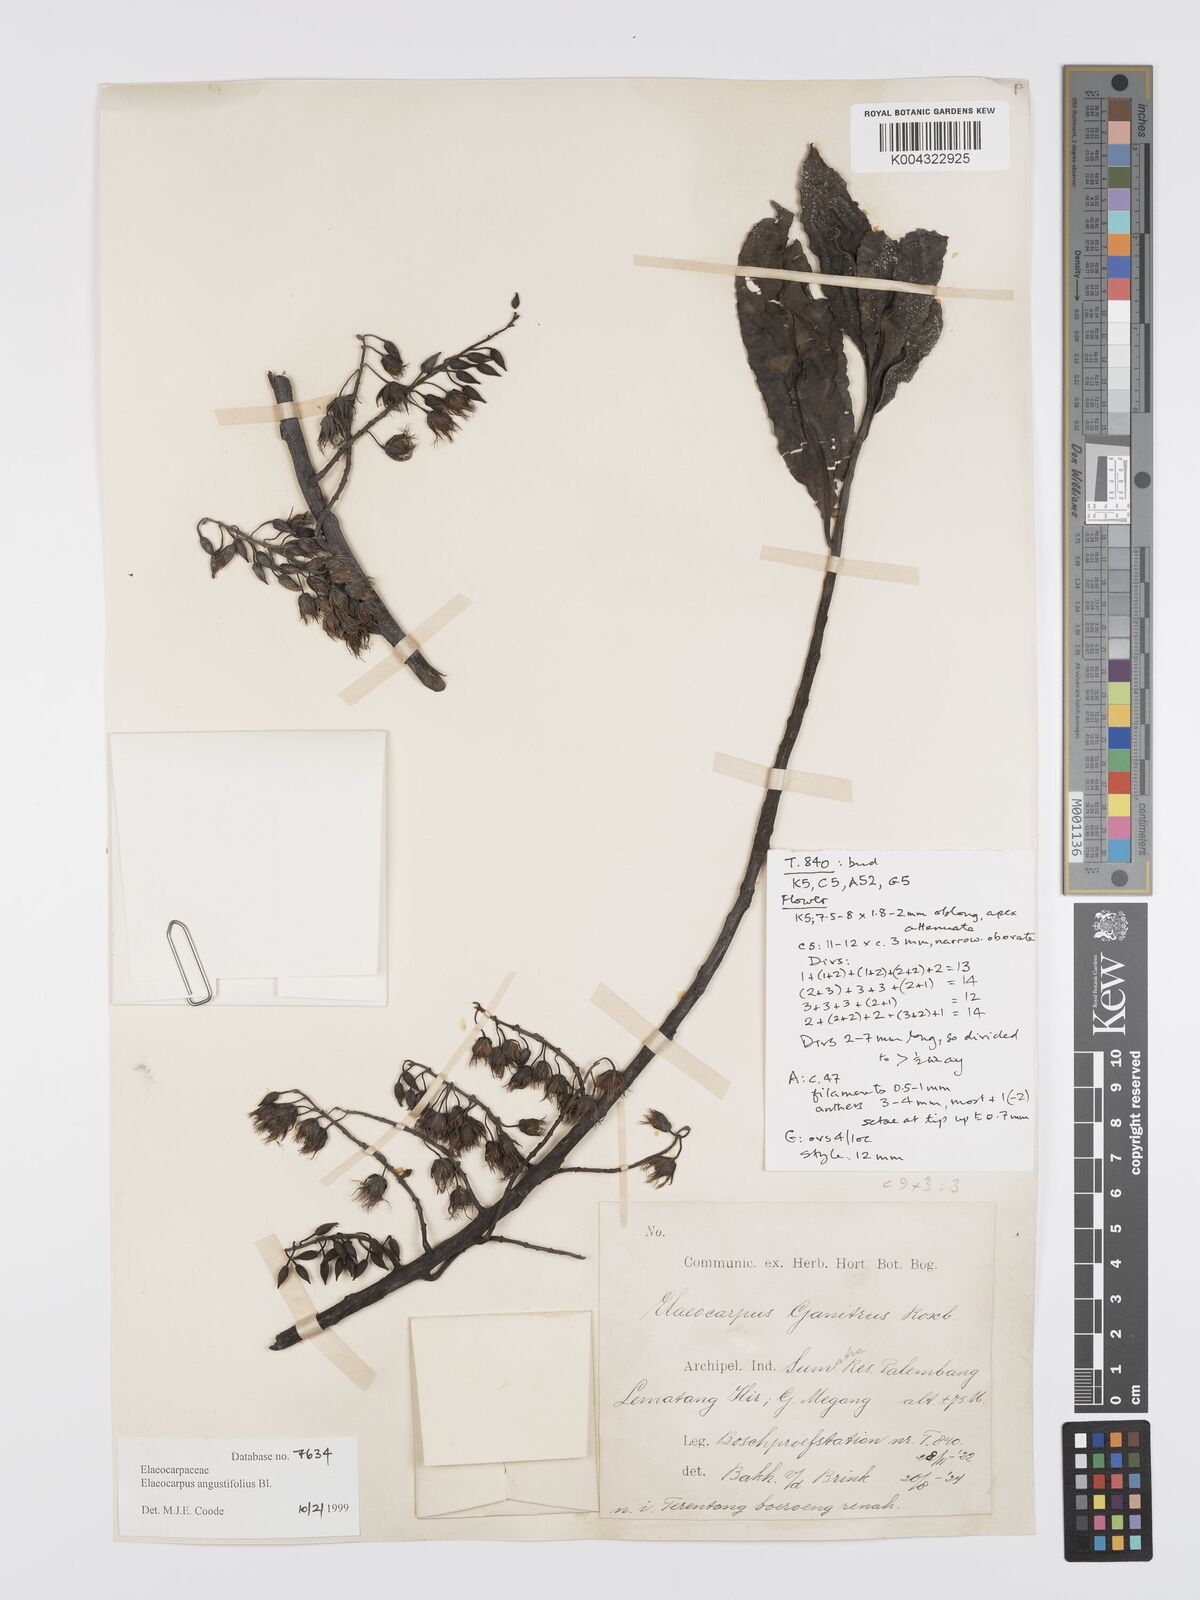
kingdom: Plantae
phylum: Tracheophyta
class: Magnoliopsida
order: Oxalidales
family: Elaeocarpaceae
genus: Elaeocarpus
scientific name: Elaeocarpus
